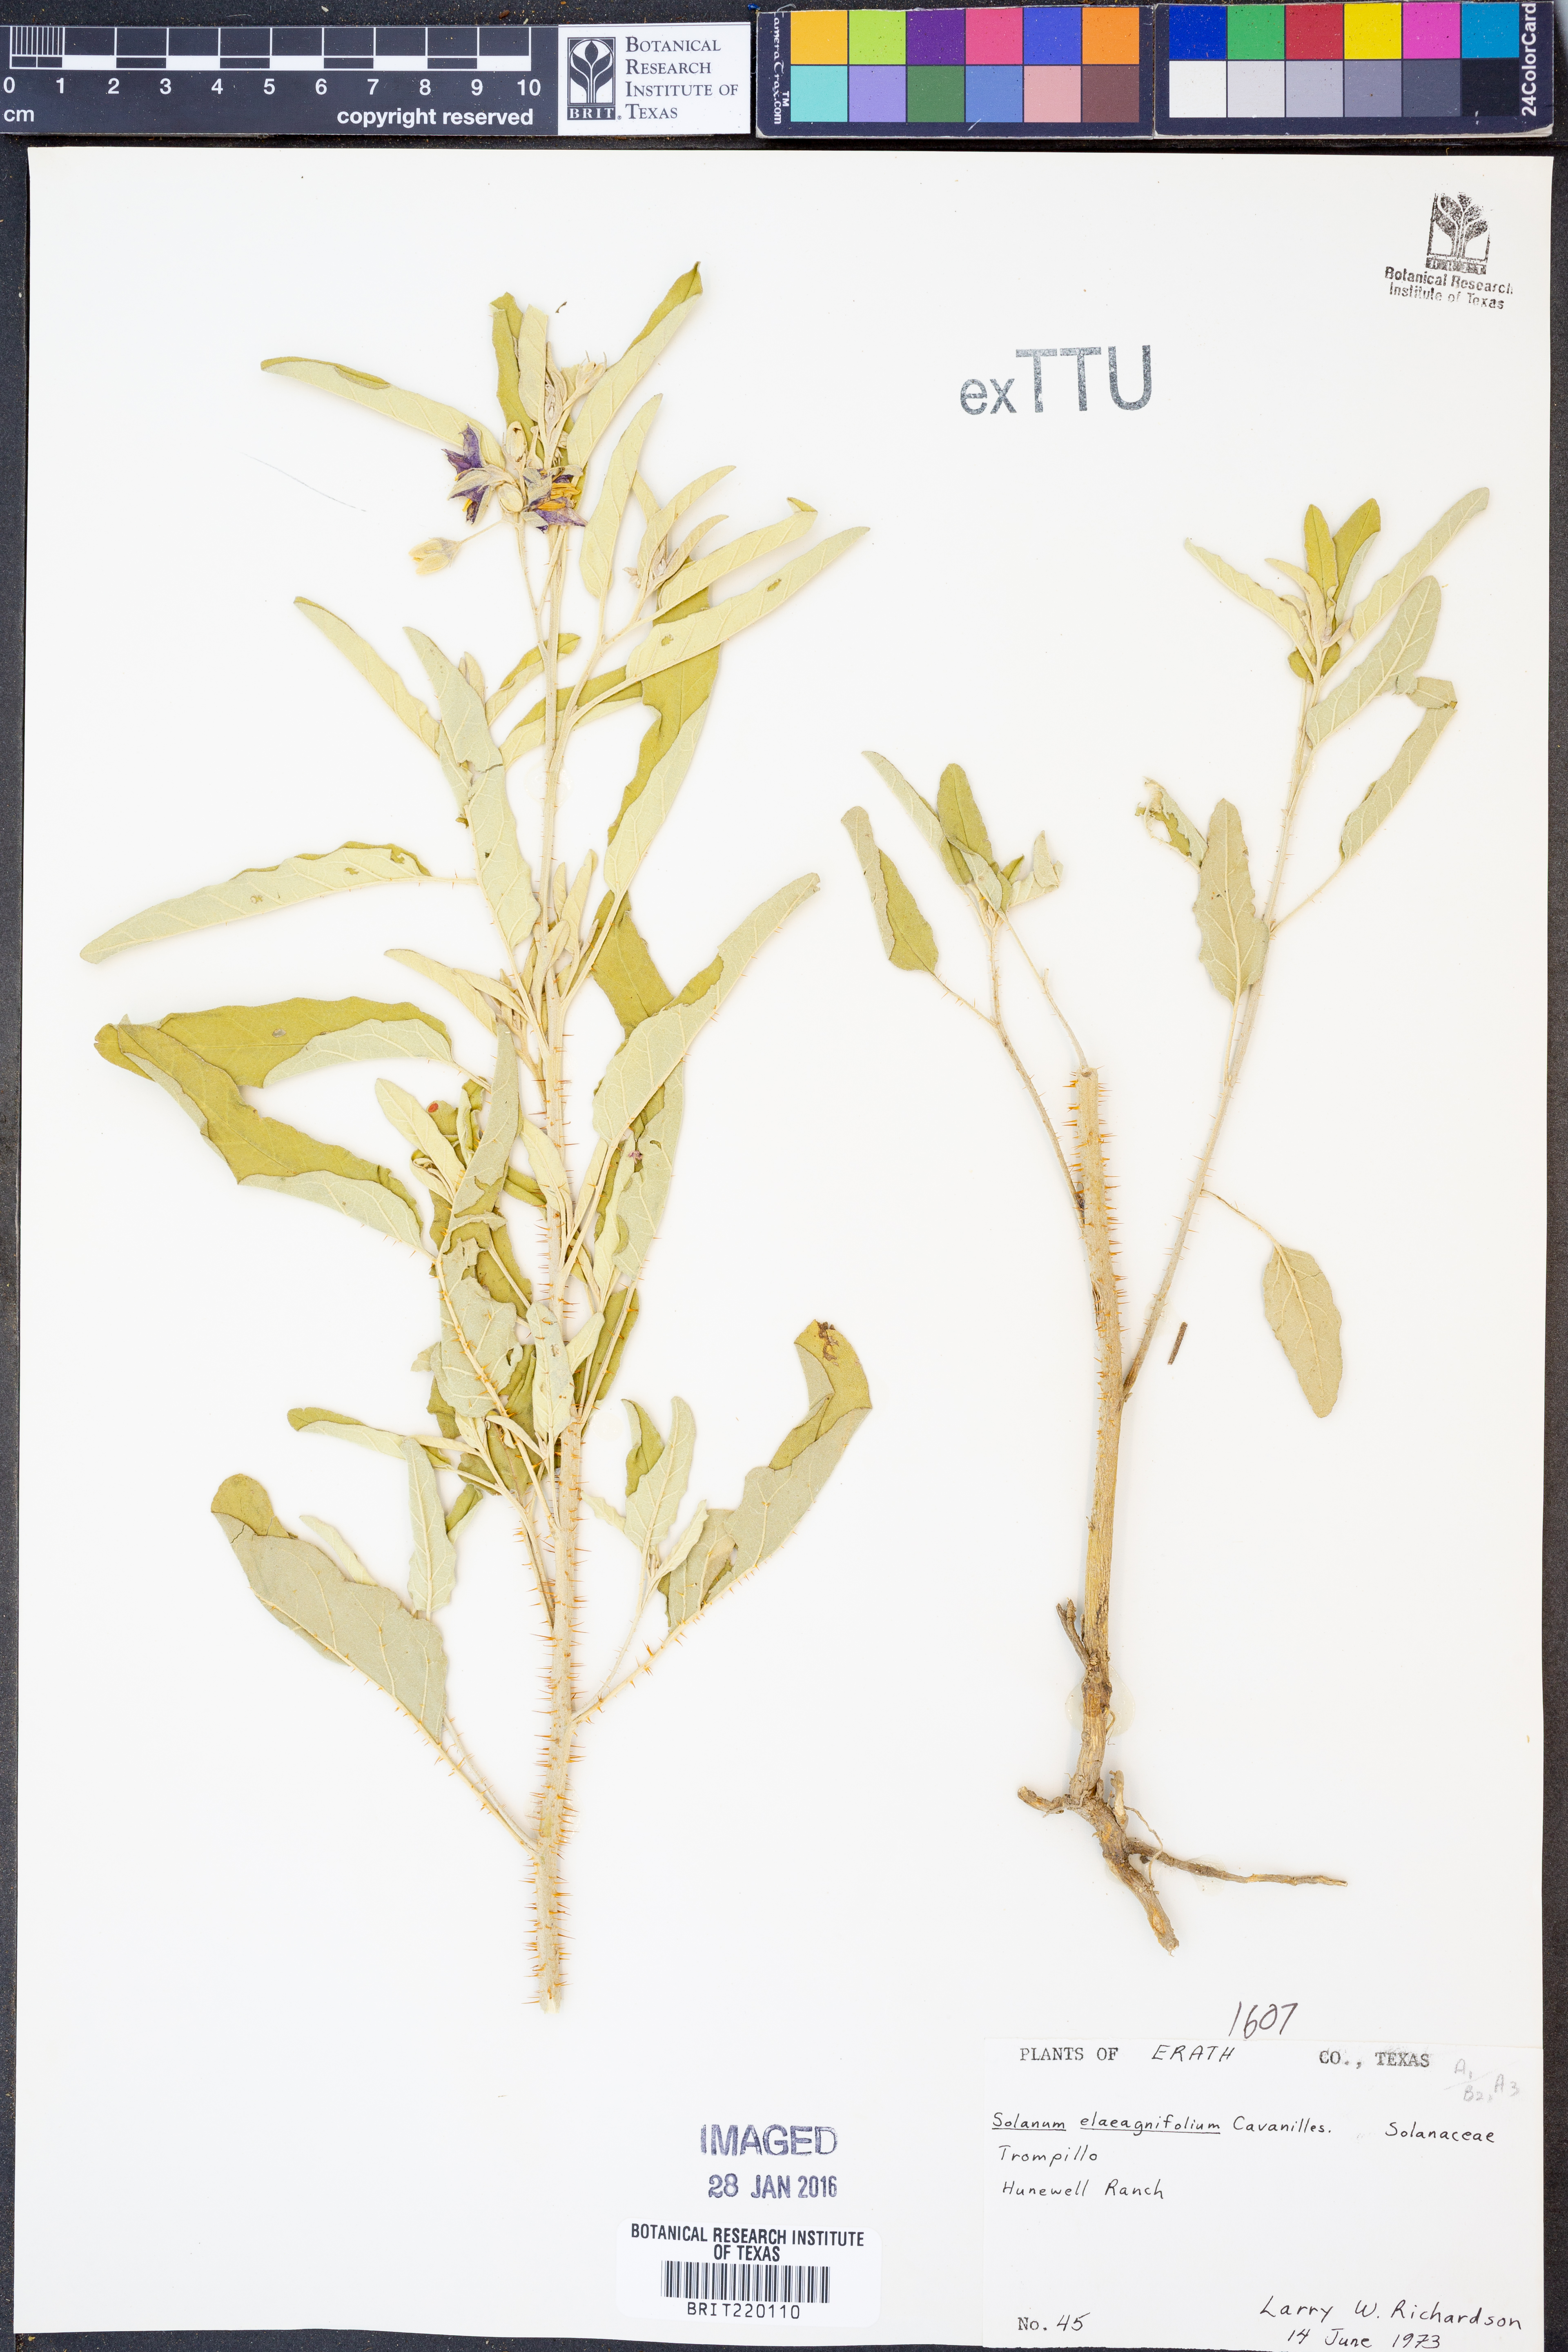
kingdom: Plantae
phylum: Tracheophyta
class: Magnoliopsida
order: Solanales
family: Solanaceae
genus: Solanum
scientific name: Solanum elaeagnifolium
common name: Silverleaf nightshade
